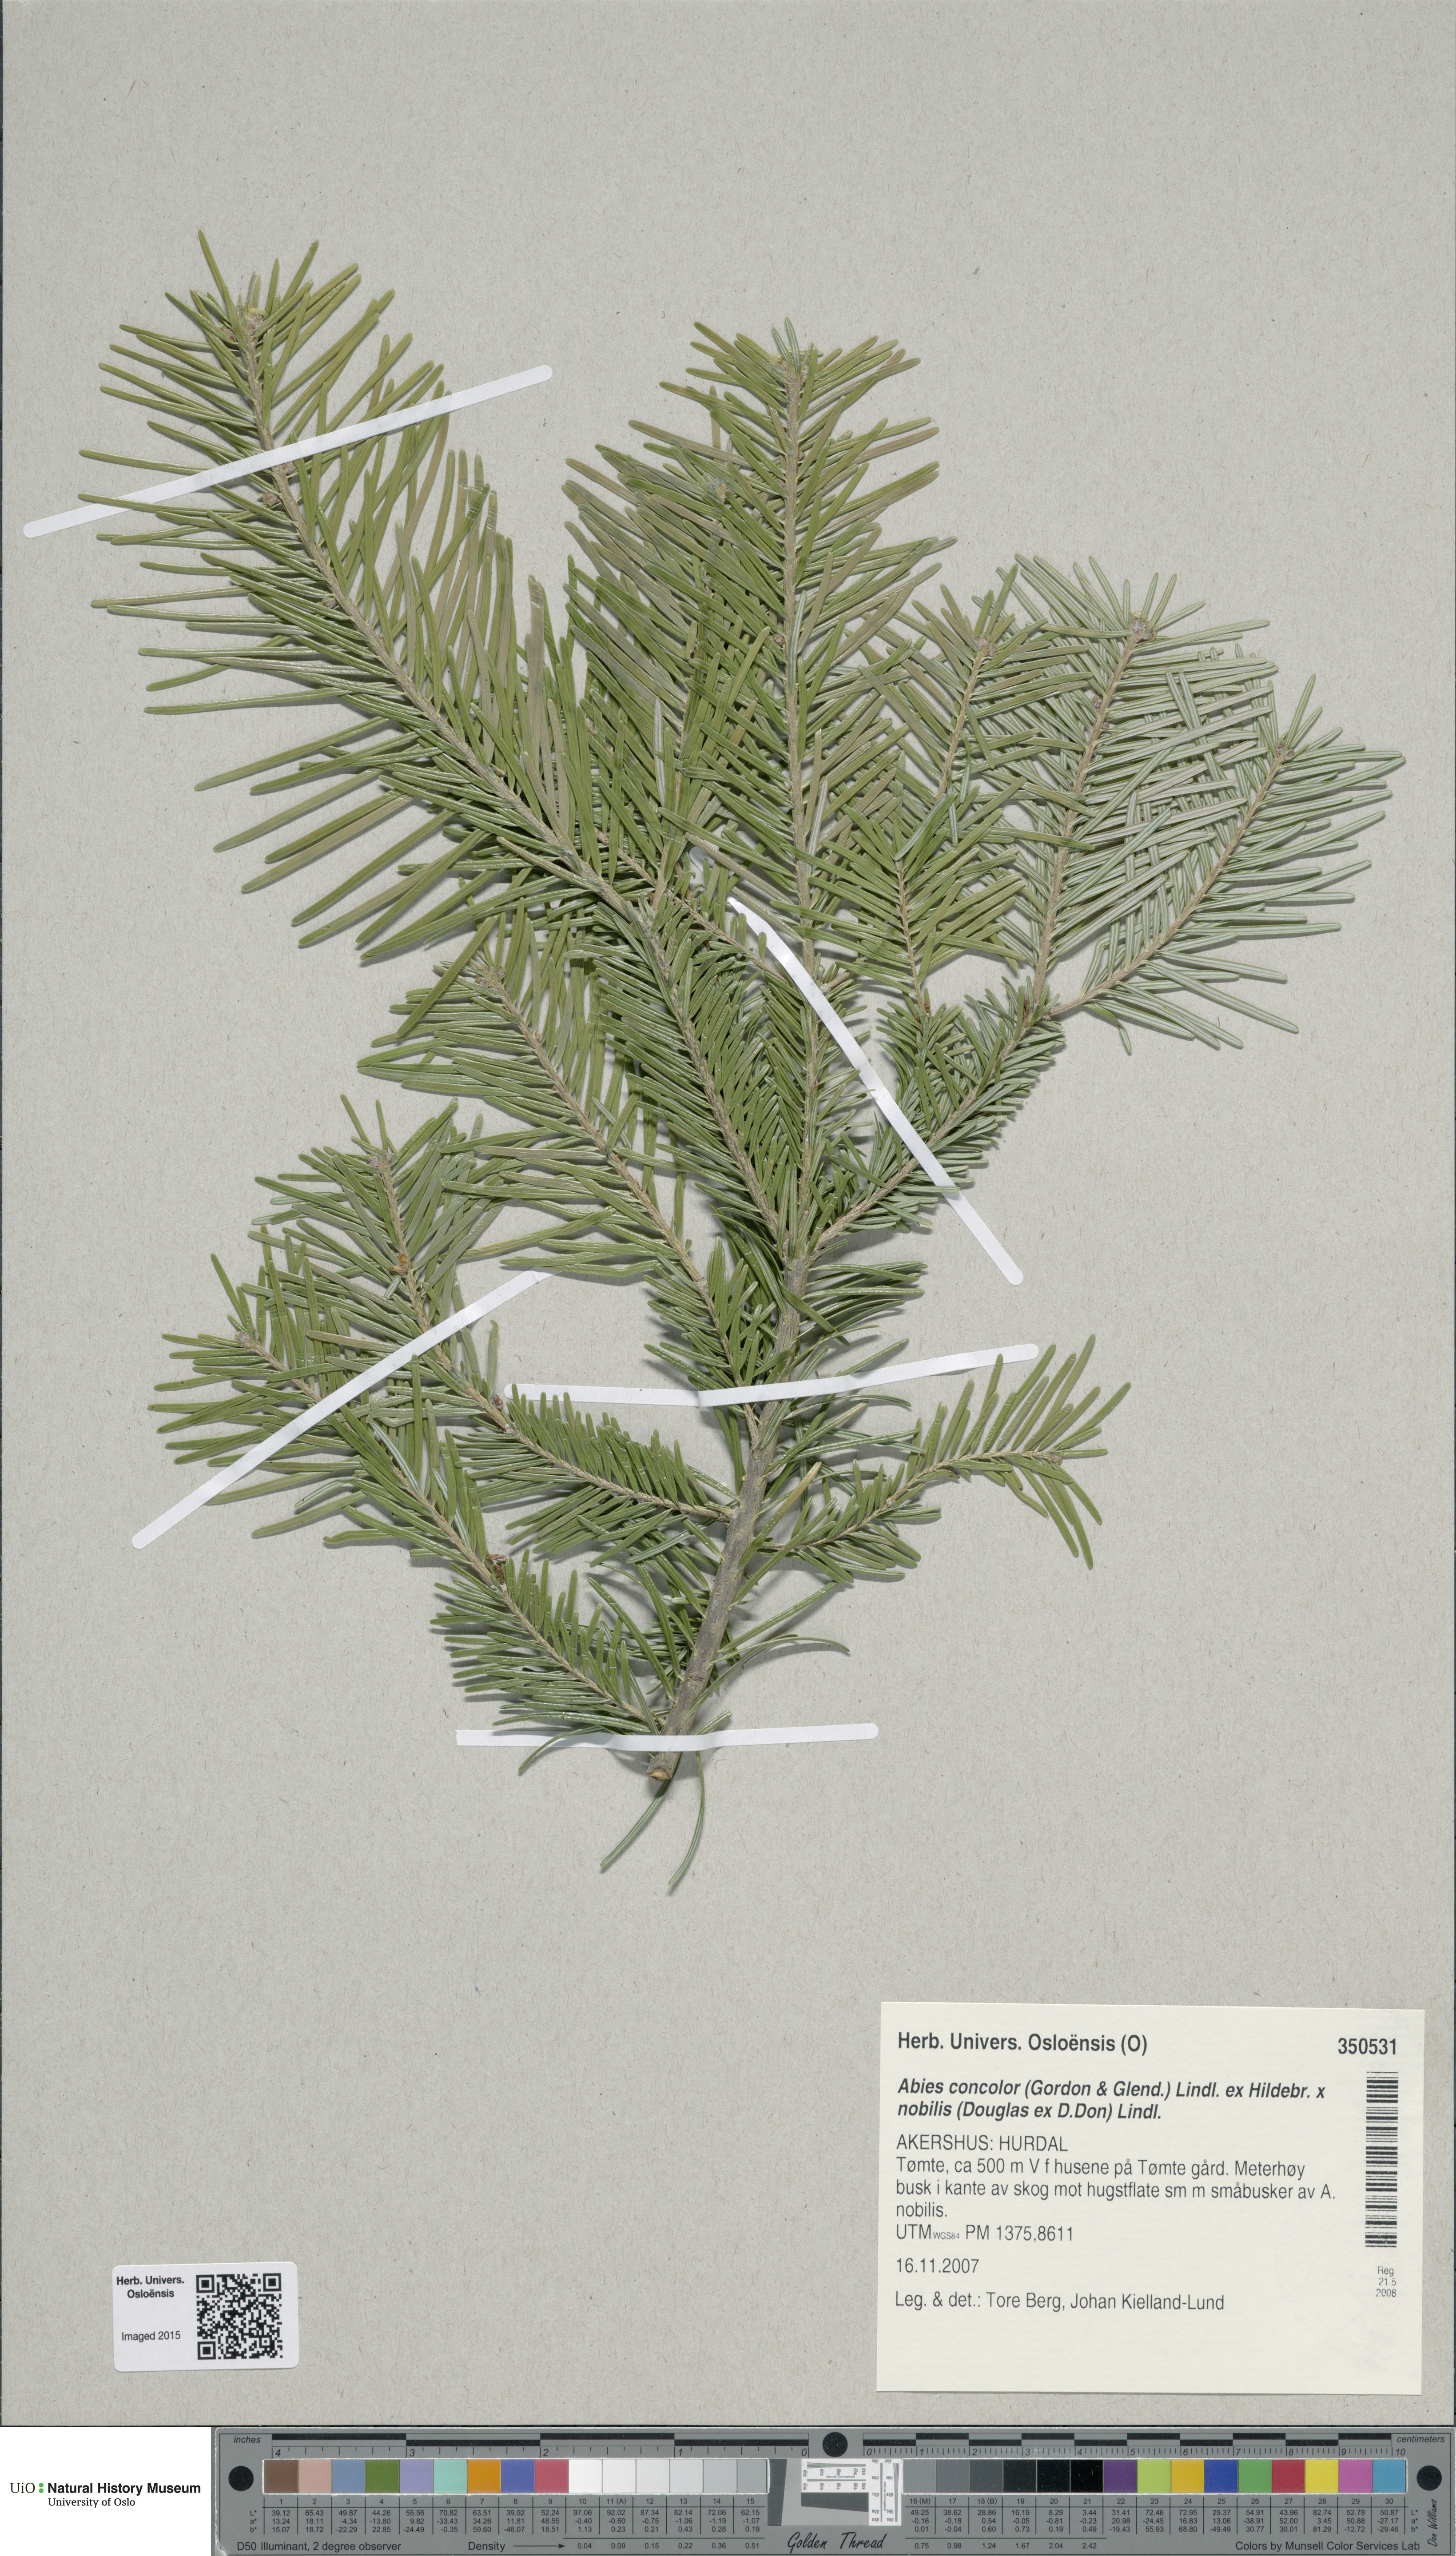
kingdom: Plantae
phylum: Tracheophyta
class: Pinopsida
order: Pinales
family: Pinaceae
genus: Abies
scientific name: Abies
